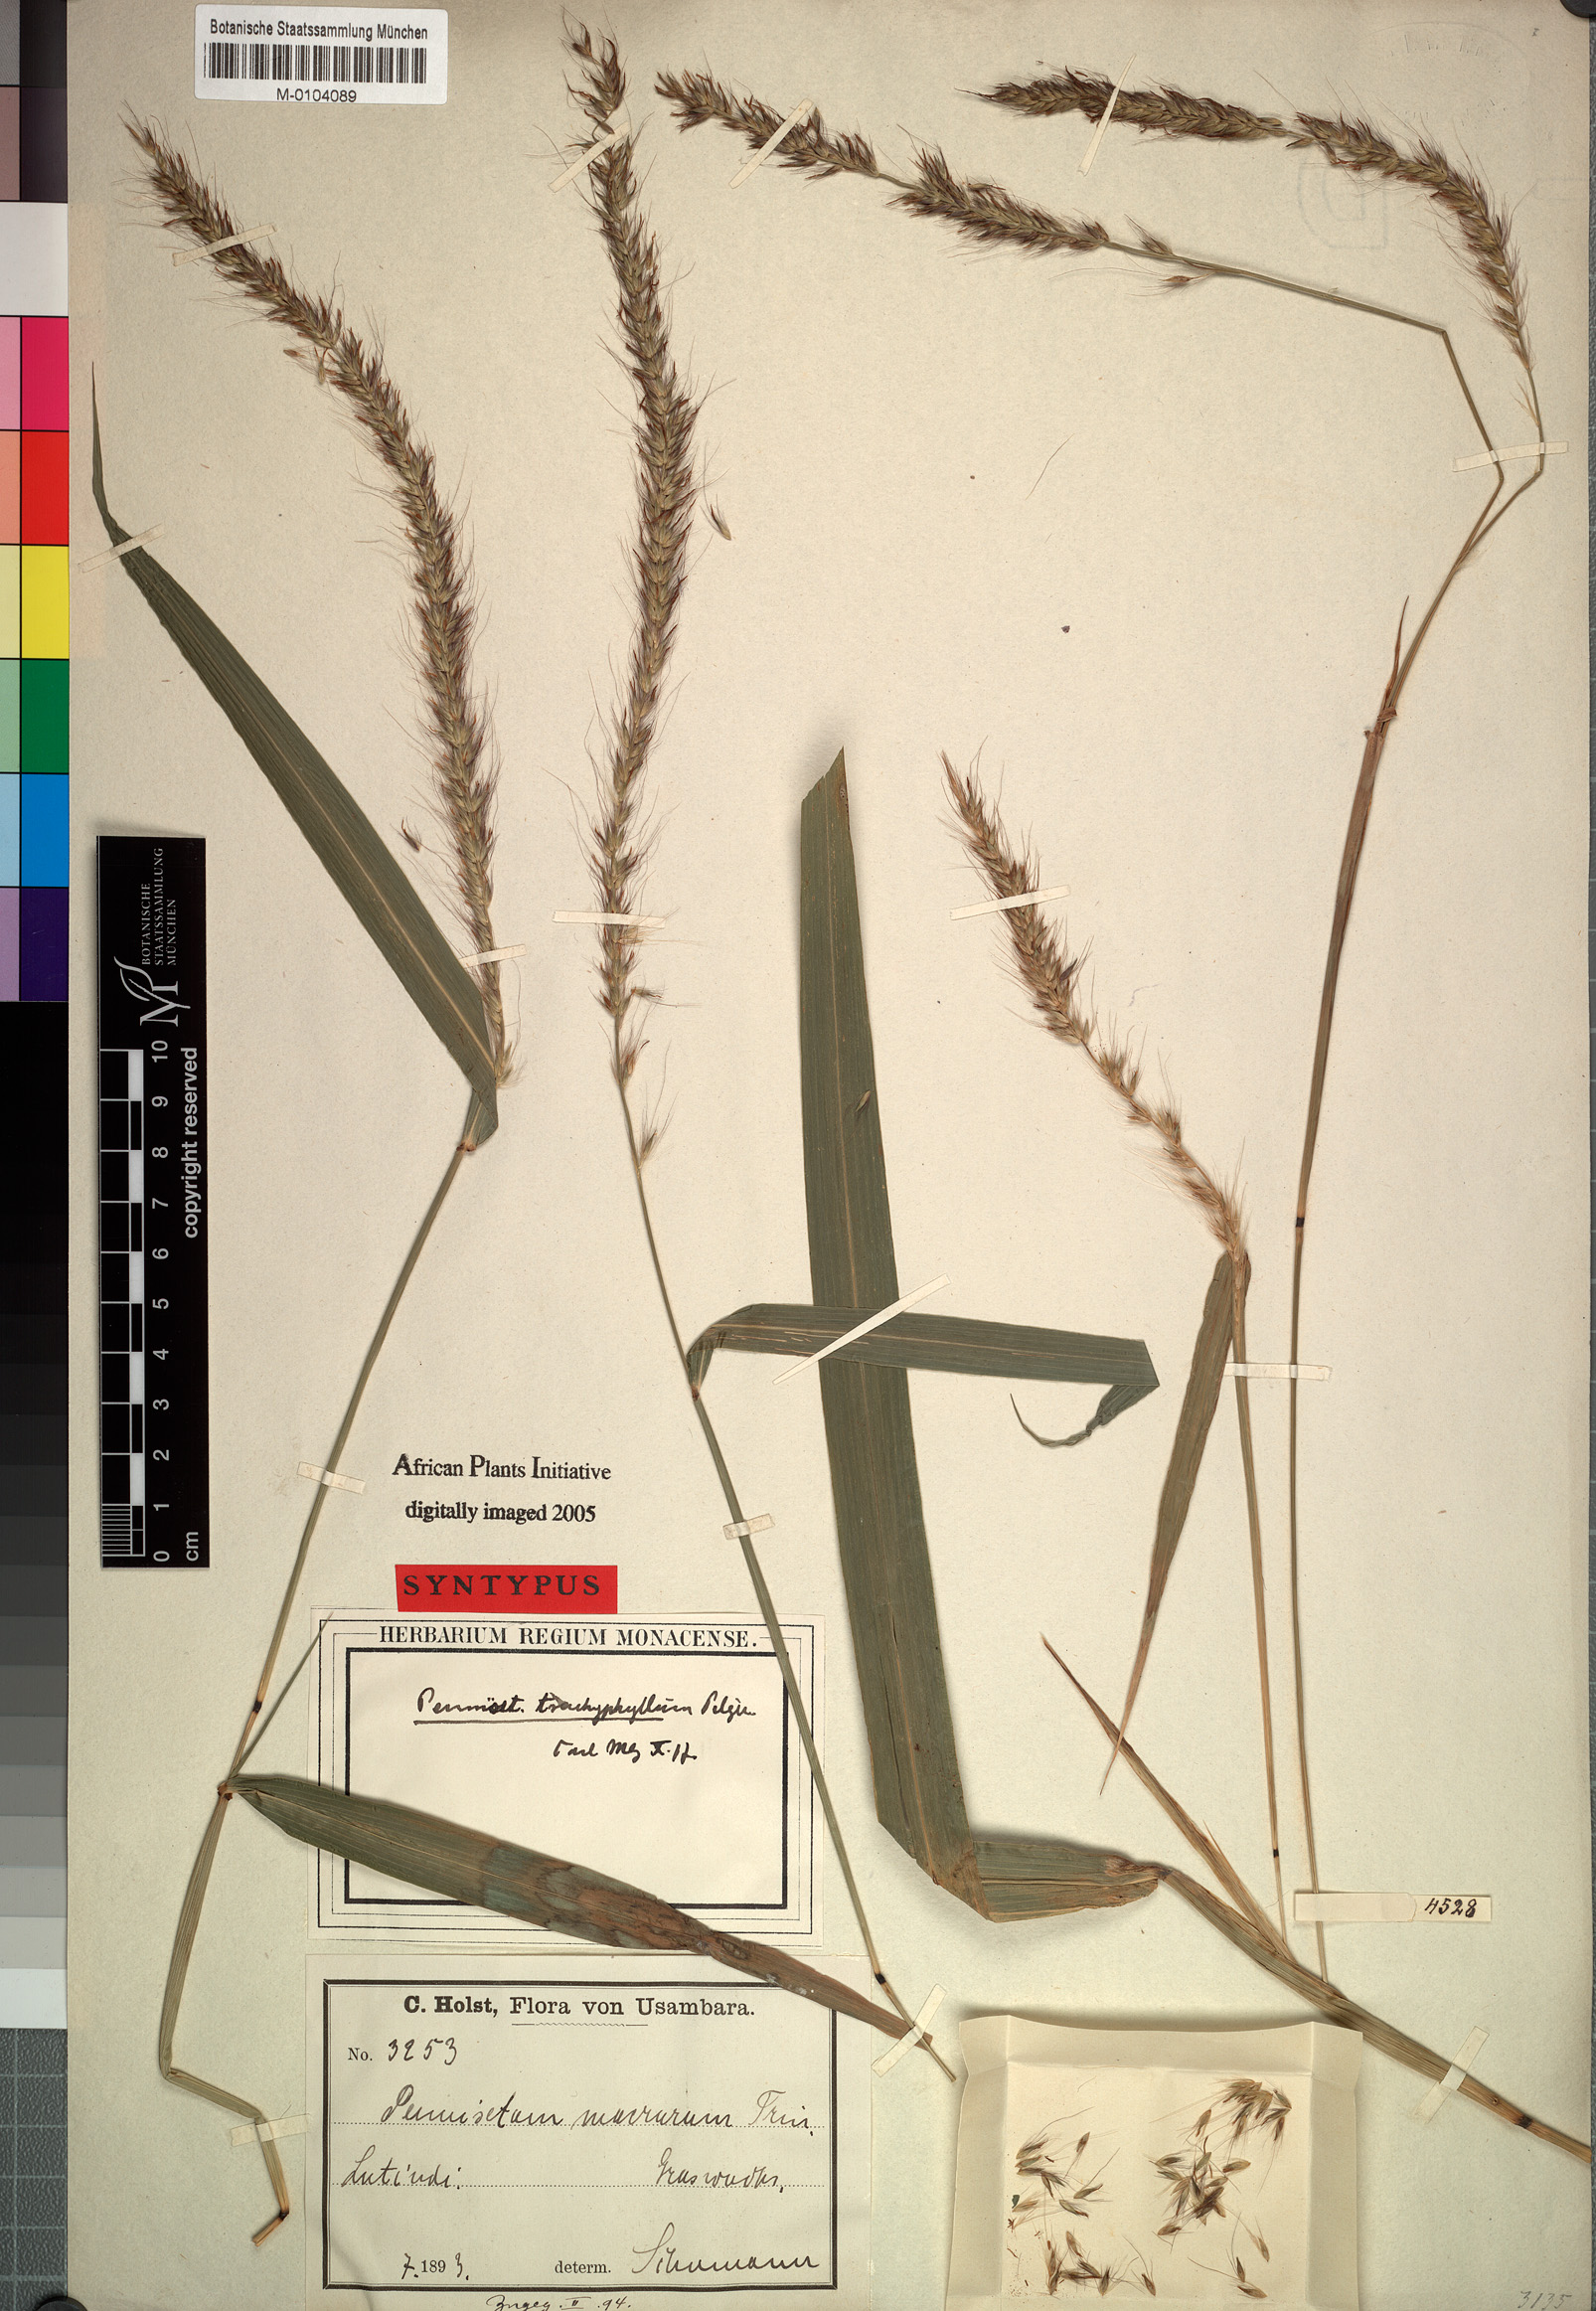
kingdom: Plantae
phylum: Tracheophyta
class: Liliopsida
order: Poales
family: Poaceae
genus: Cenchrus
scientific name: Cenchrus trachyphyllus
